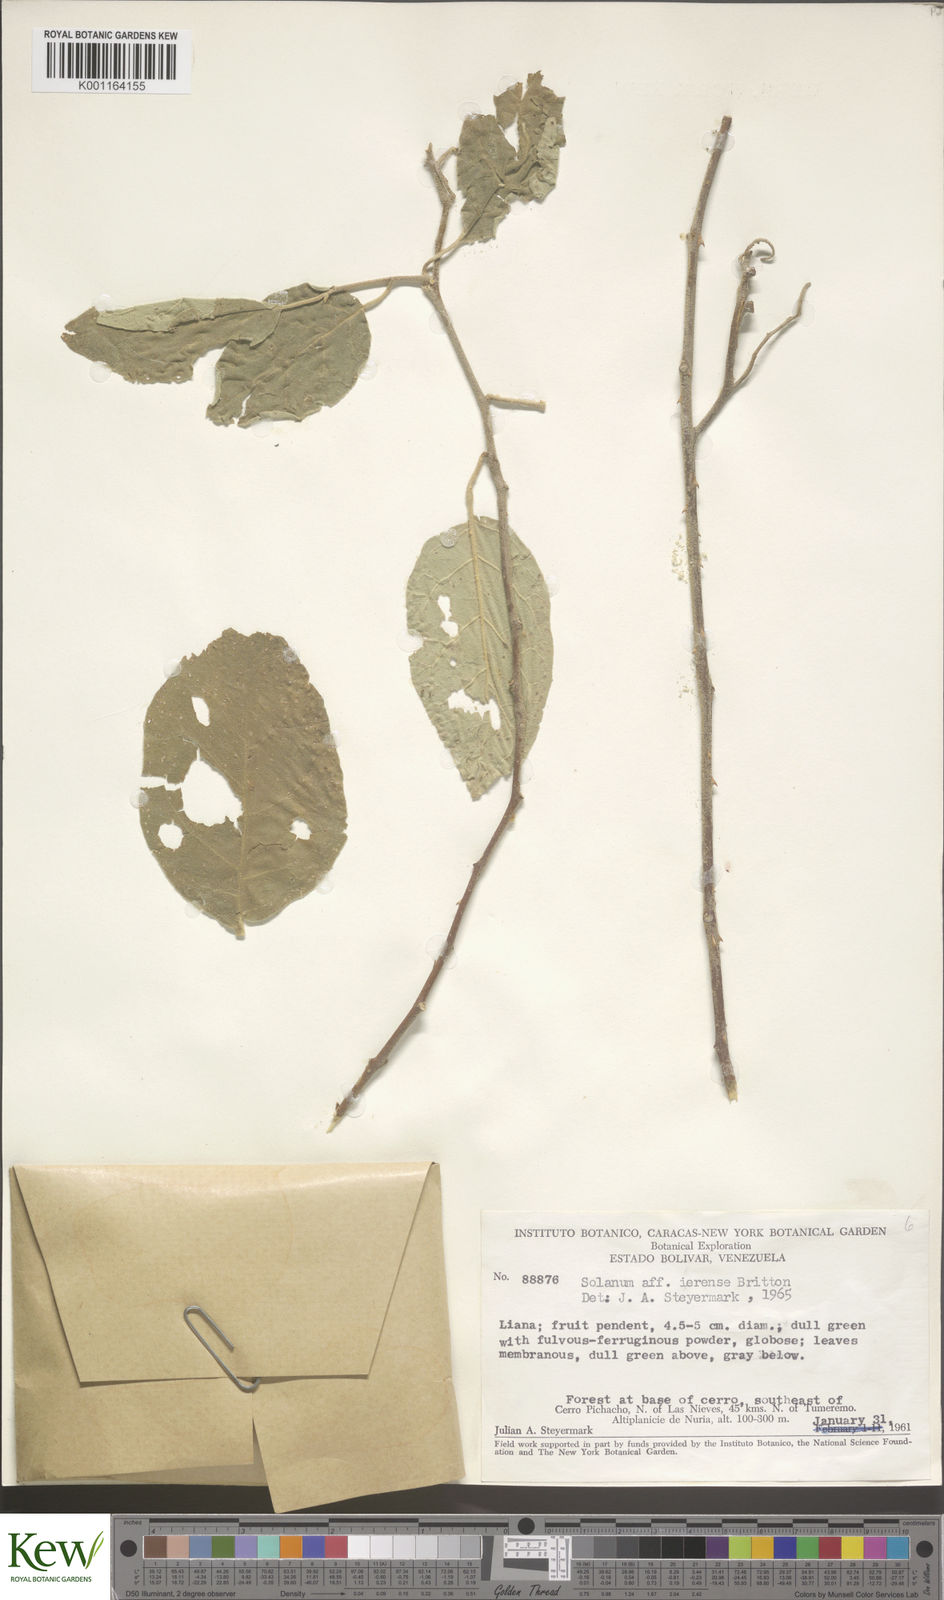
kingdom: Plantae
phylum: Tracheophyta
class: Magnoliopsida
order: Solanales
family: Solanaceae
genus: Solanum
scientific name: Solanum gardneri
